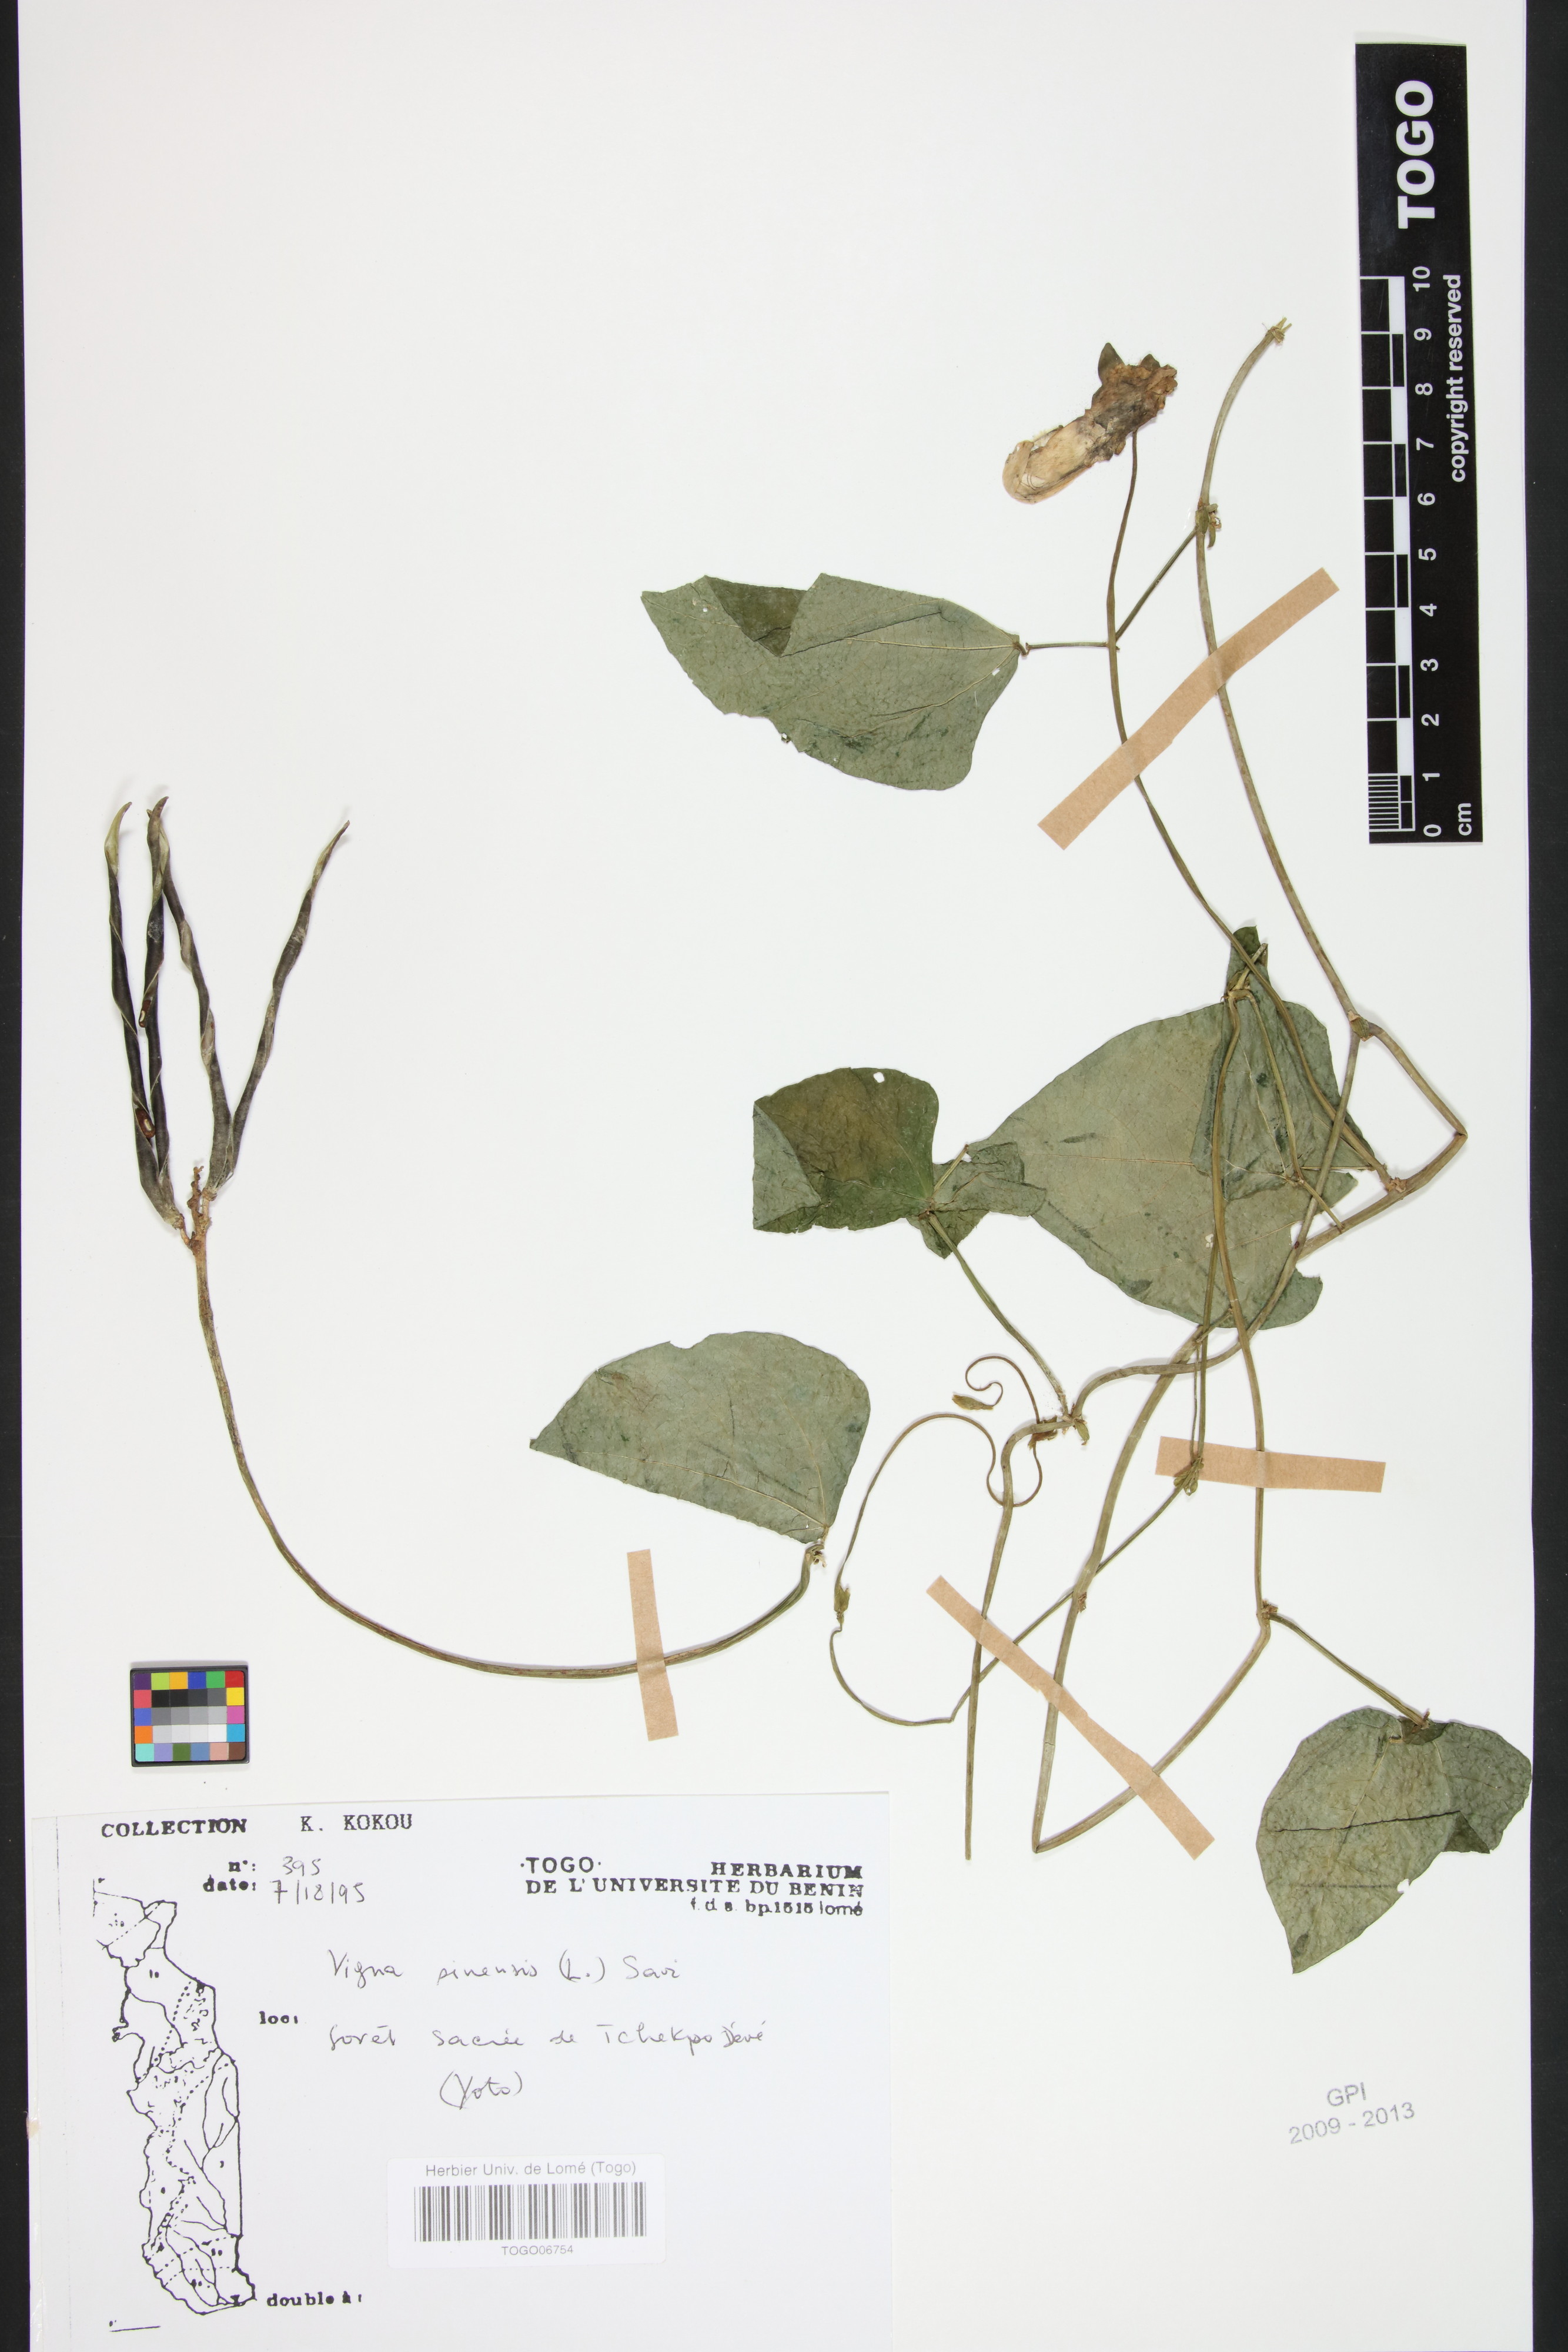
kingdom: Plantae
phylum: Tracheophyta
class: Magnoliopsida
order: Fabales
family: Fabaceae
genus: Vigna
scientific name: Vigna unguiculata
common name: Cowpea
